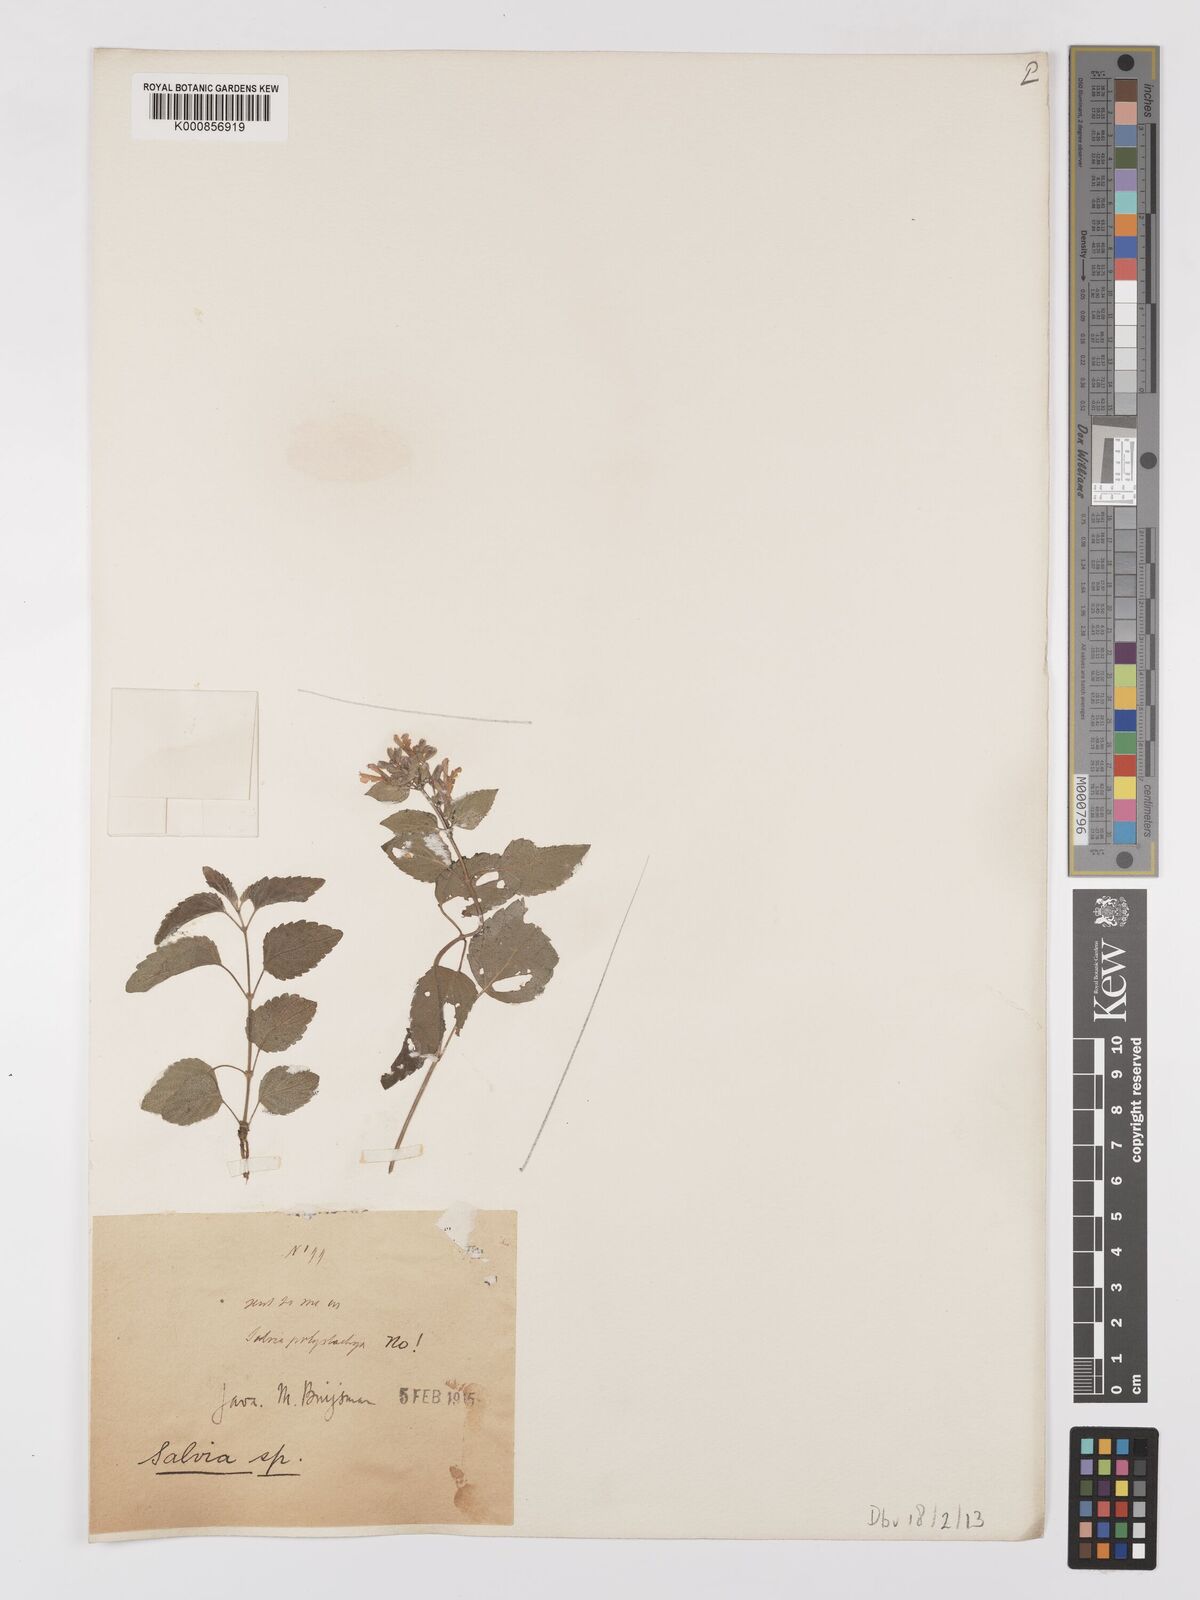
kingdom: Plantae
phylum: Tracheophyta
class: Magnoliopsida
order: Lamiales
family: Lamiaceae
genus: Salvia
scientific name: Salvia
